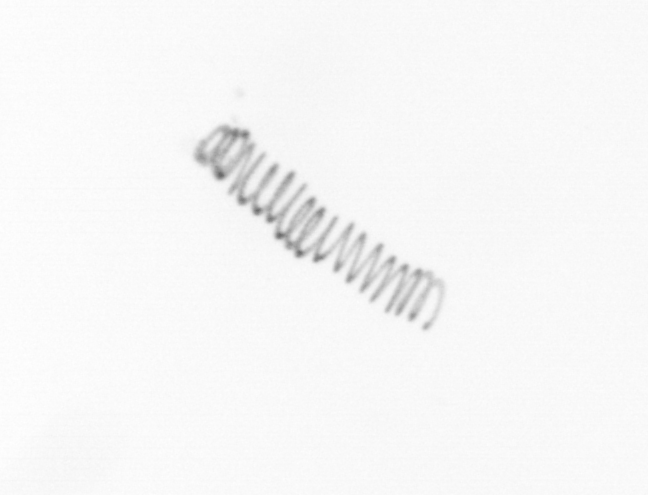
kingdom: Chromista
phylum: Ochrophyta
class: Bacillariophyceae
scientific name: Bacillariophyceae
